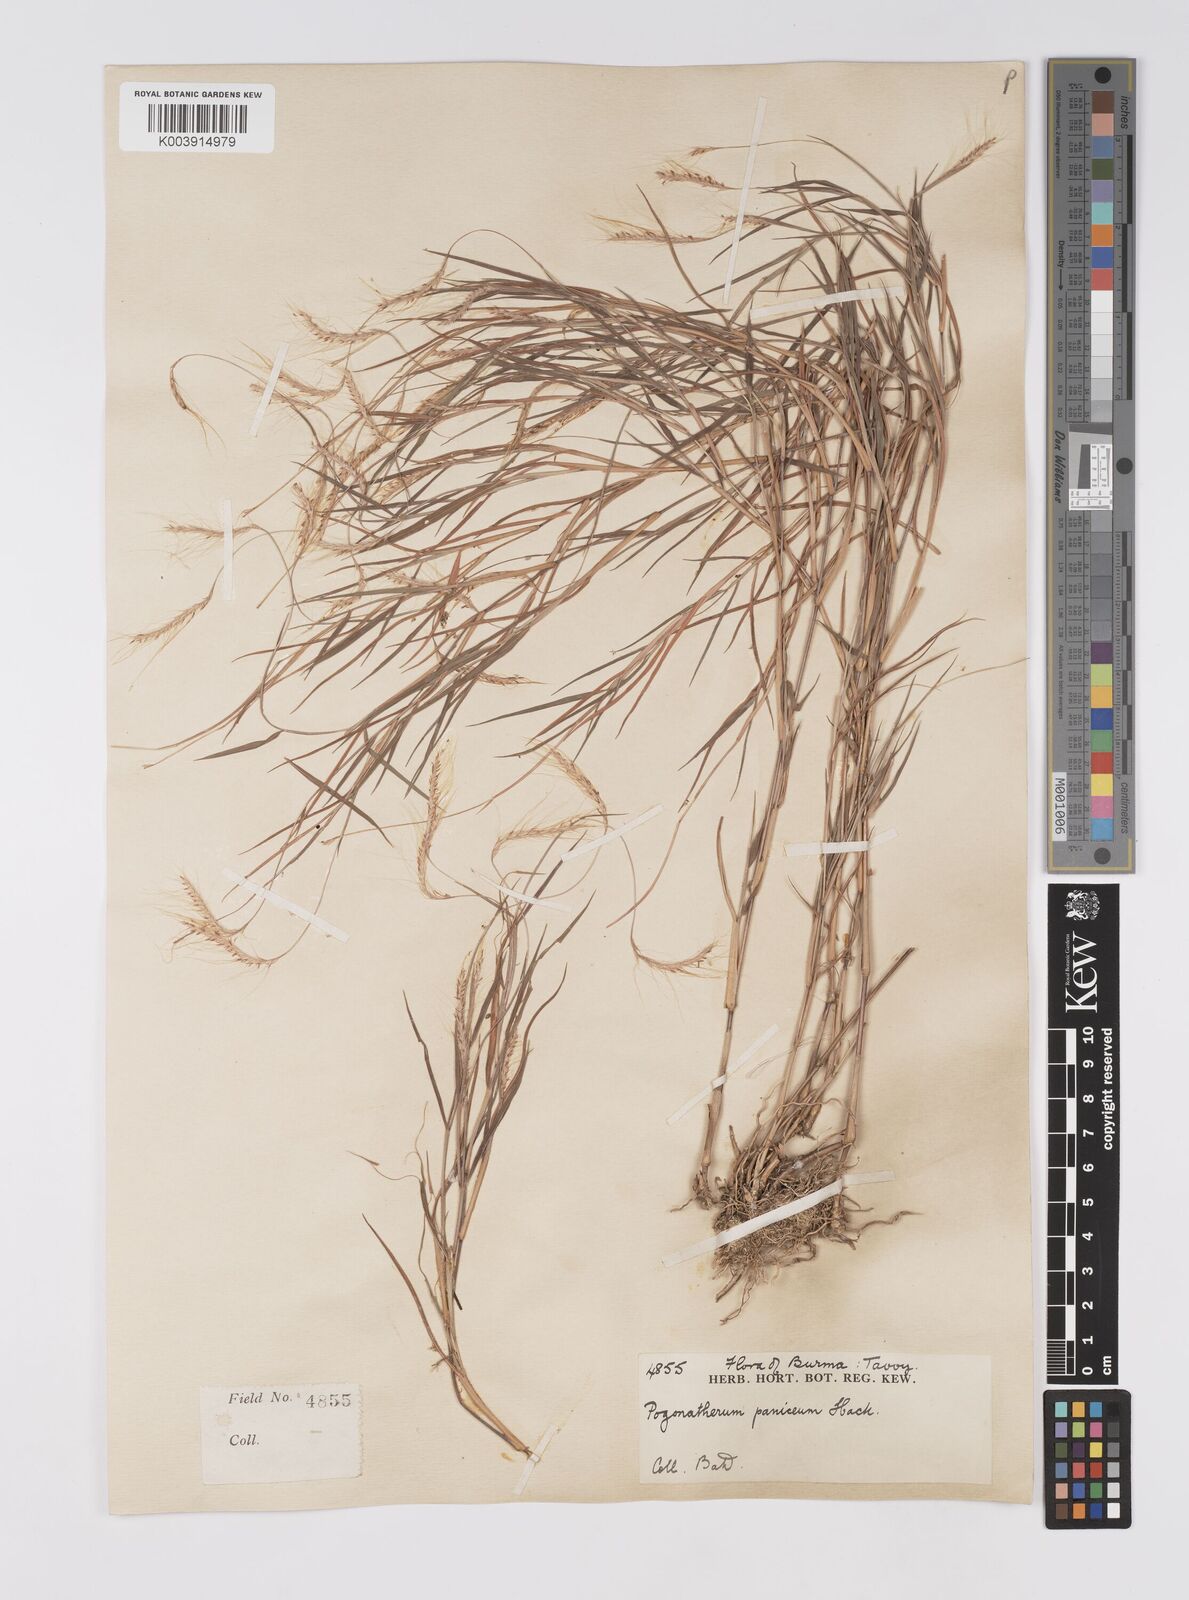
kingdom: Plantae
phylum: Tracheophyta
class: Liliopsida
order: Poales
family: Poaceae
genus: Pogonatherum
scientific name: Pogonatherum paniceum
